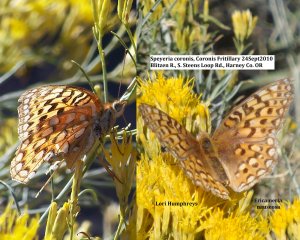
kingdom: Animalia
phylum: Arthropoda
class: Insecta
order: Lepidoptera
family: Nymphalidae
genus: Speyeria
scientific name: Speyeria coronis
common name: Coronis Fritillary
